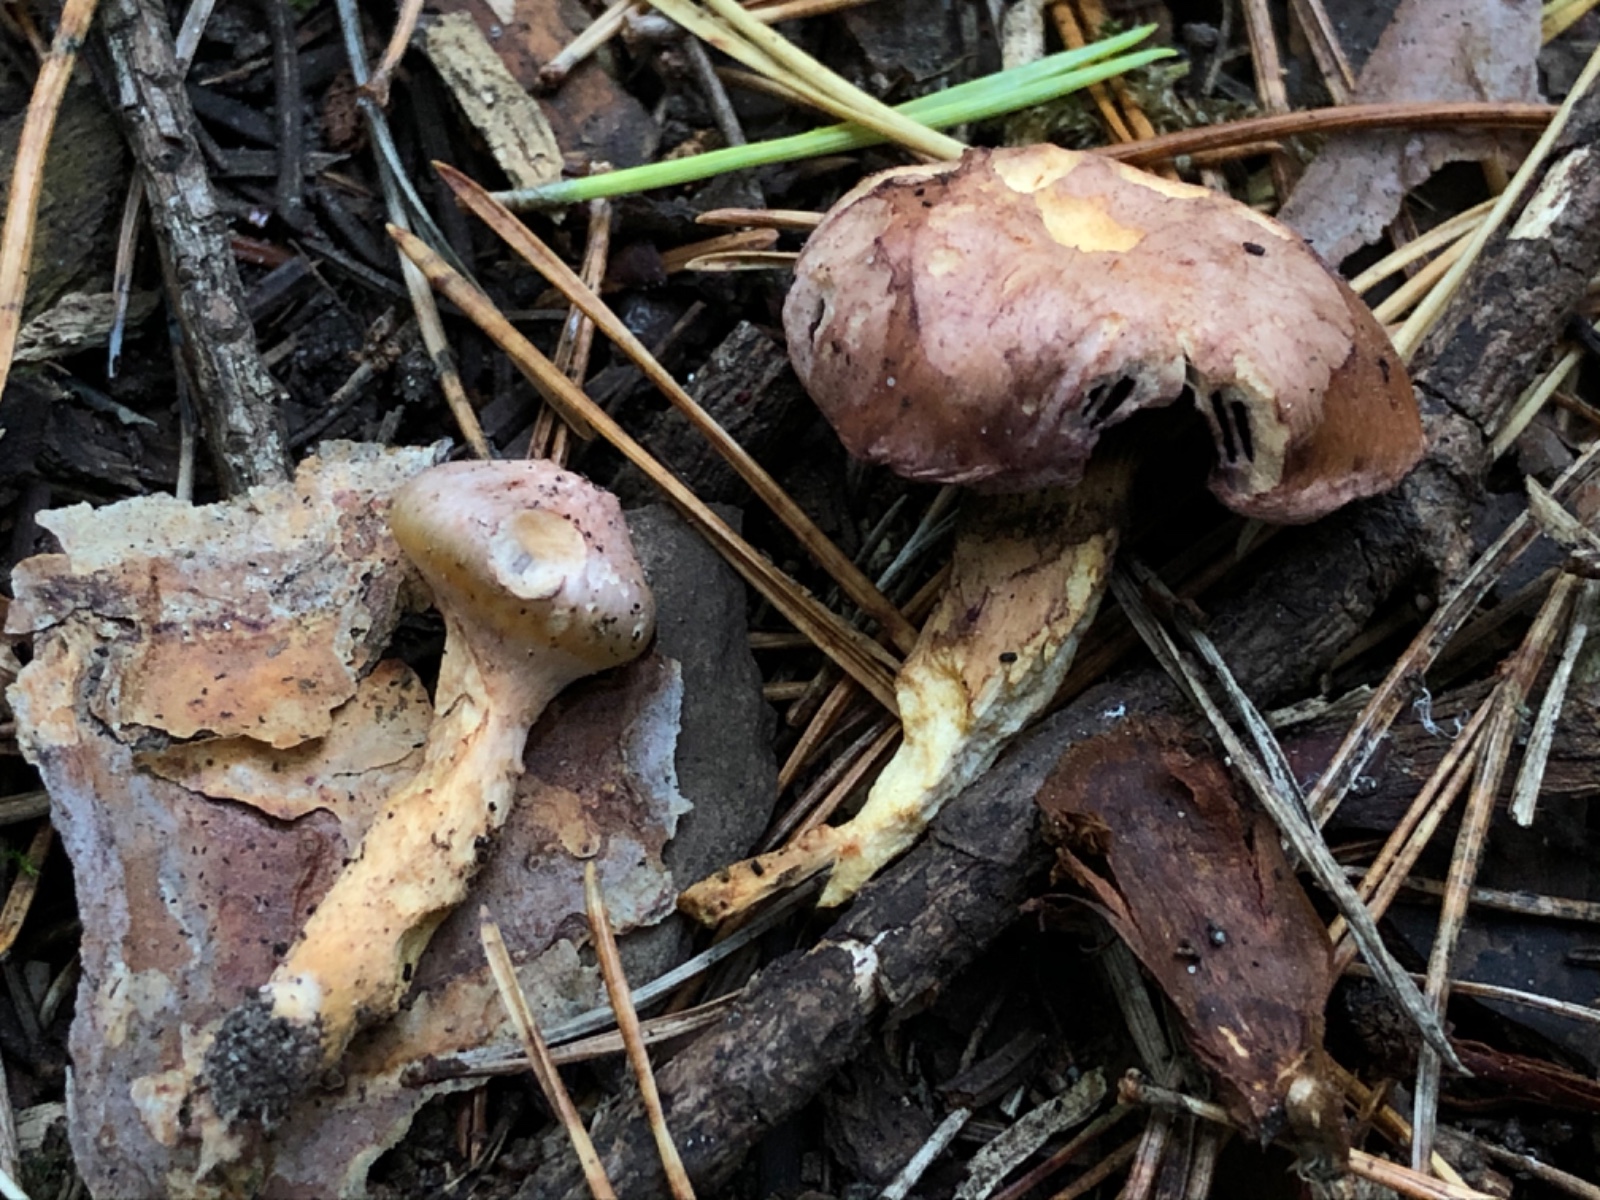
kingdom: Fungi
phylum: Basidiomycota
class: Agaricomycetes
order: Boletales
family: Gomphidiaceae
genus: Chroogomphus
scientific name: Chroogomphus
